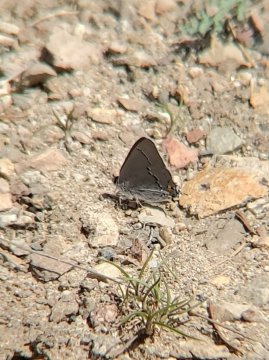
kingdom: Animalia
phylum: Arthropoda
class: Insecta
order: Lepidoptera
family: Lycaenidae
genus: Strymon
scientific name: Strymon melinus
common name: Gray Hairstreak
